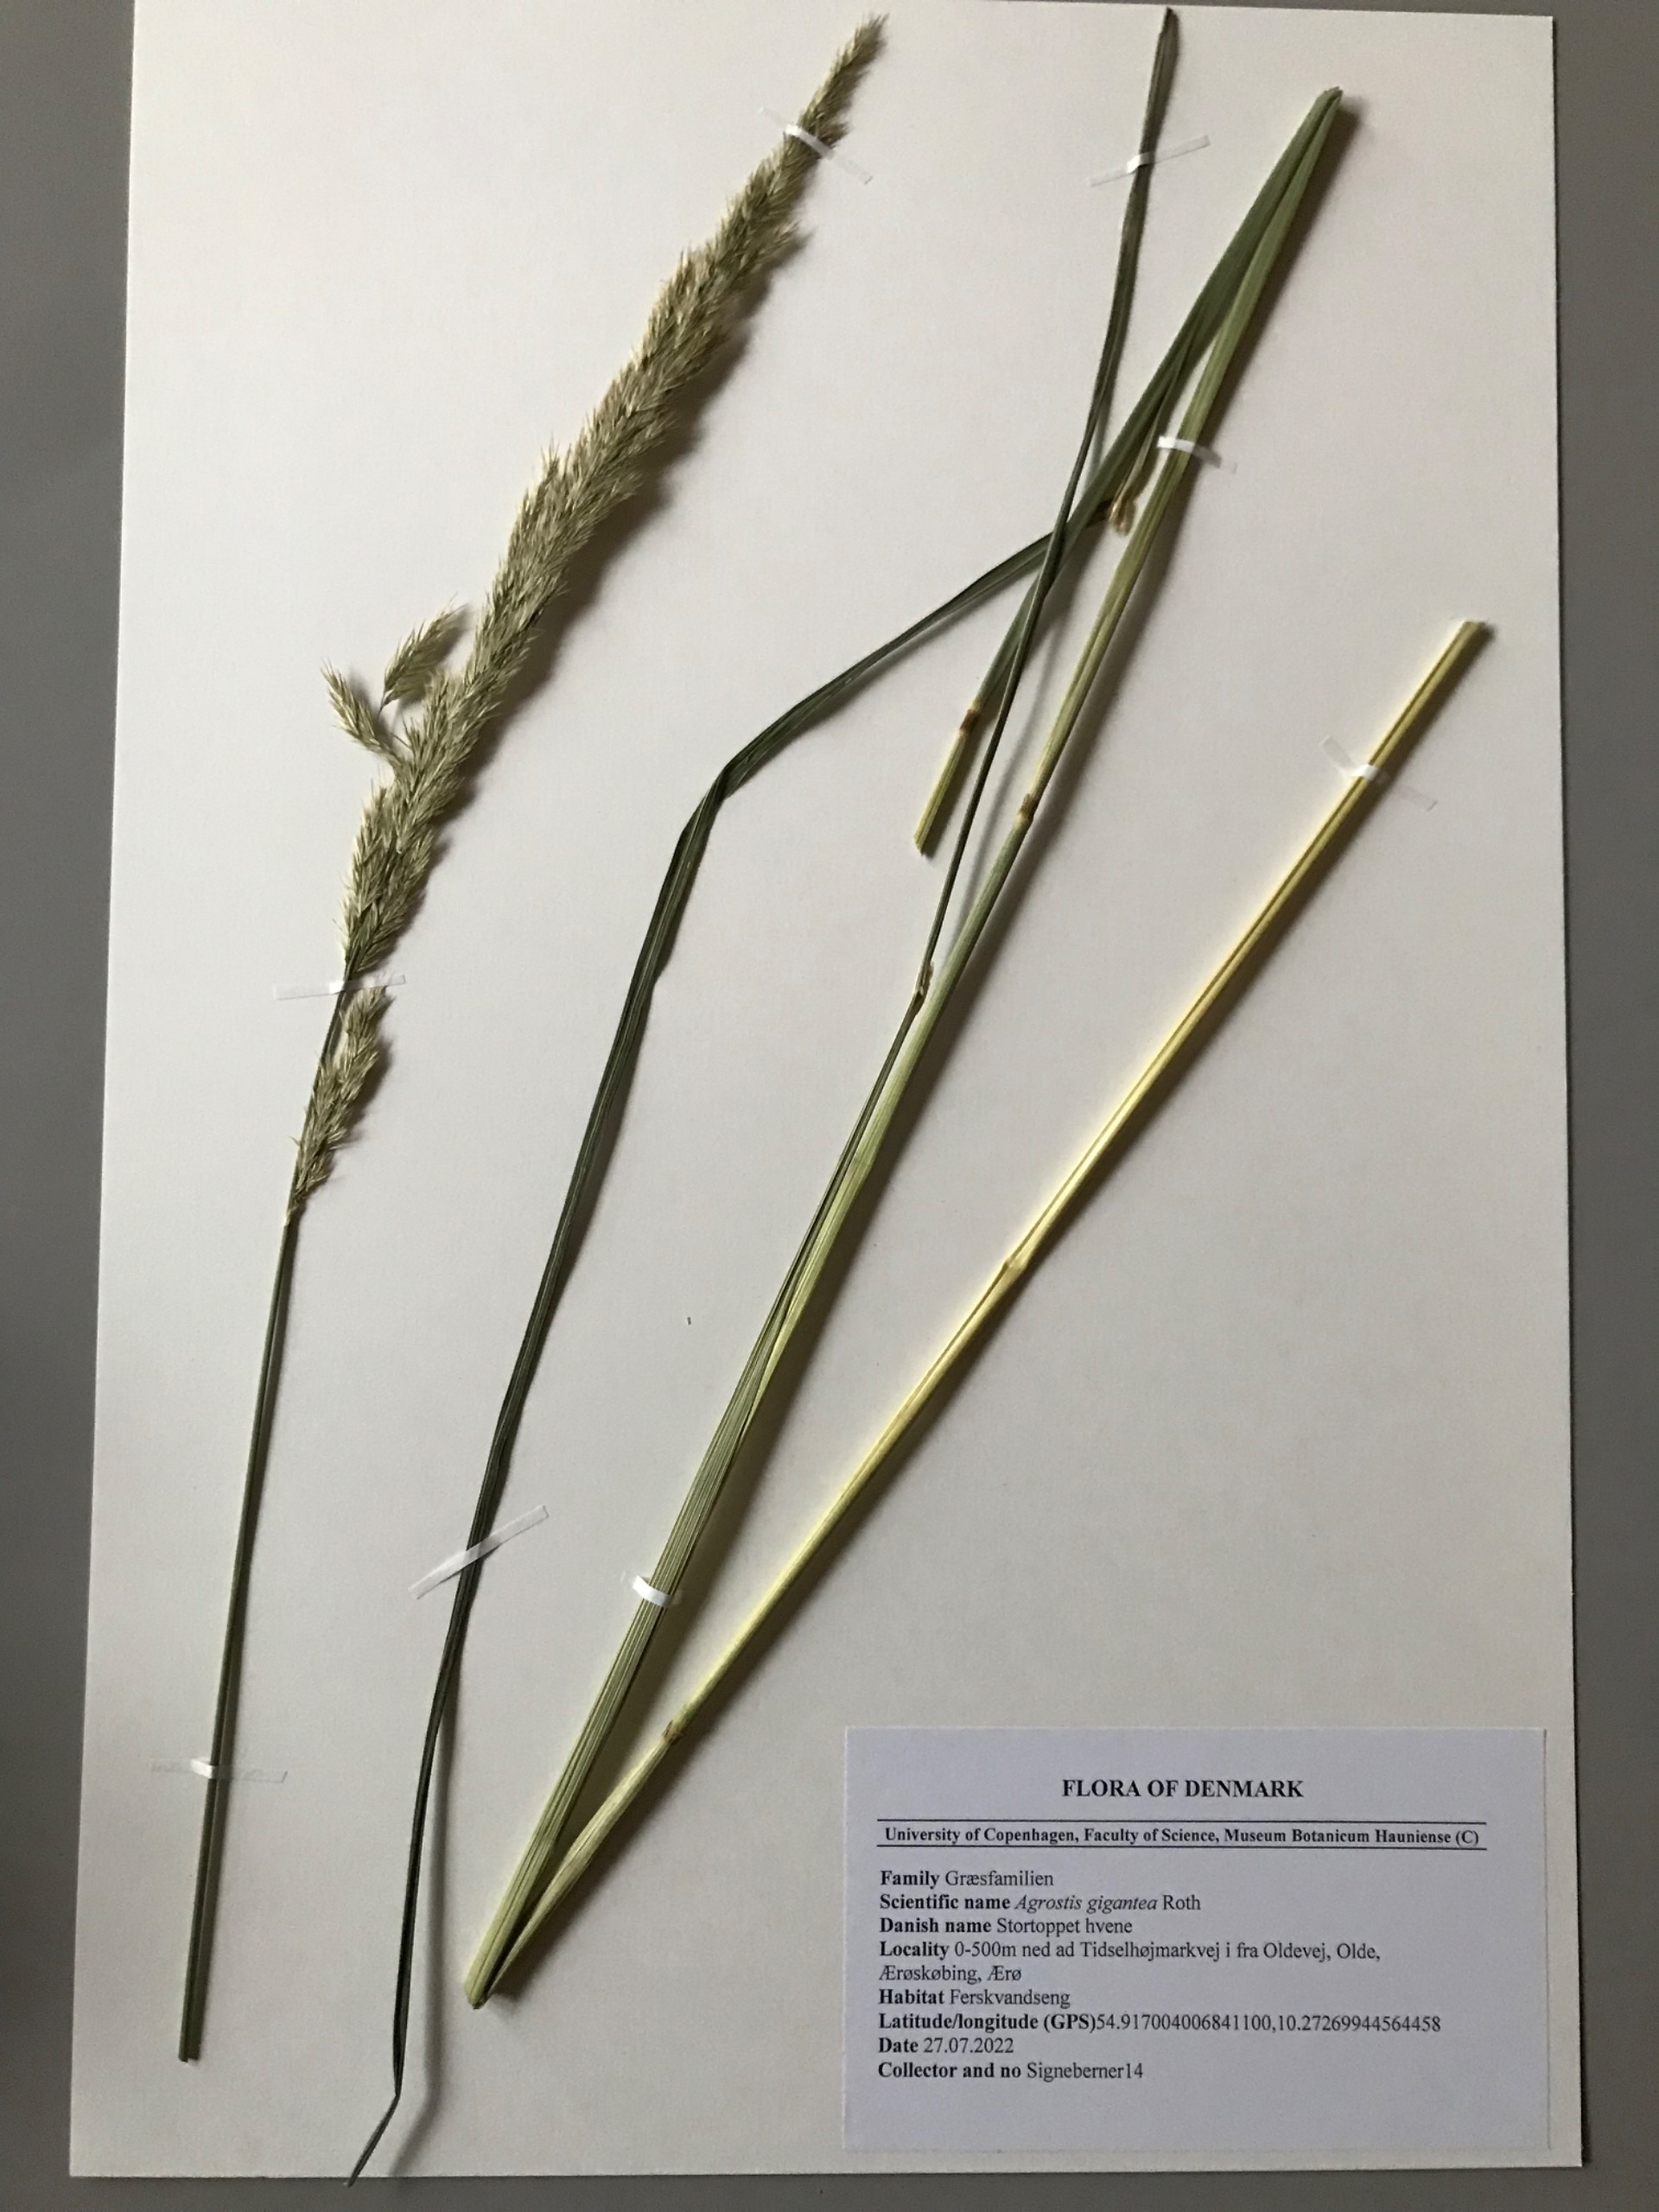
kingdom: Plantae
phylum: Tracheophyta
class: Liliopsida
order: Poales
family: Poaceae
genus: Calamagrostis
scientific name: Calamagrostis epigejos
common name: Bjerg-rørhvene
